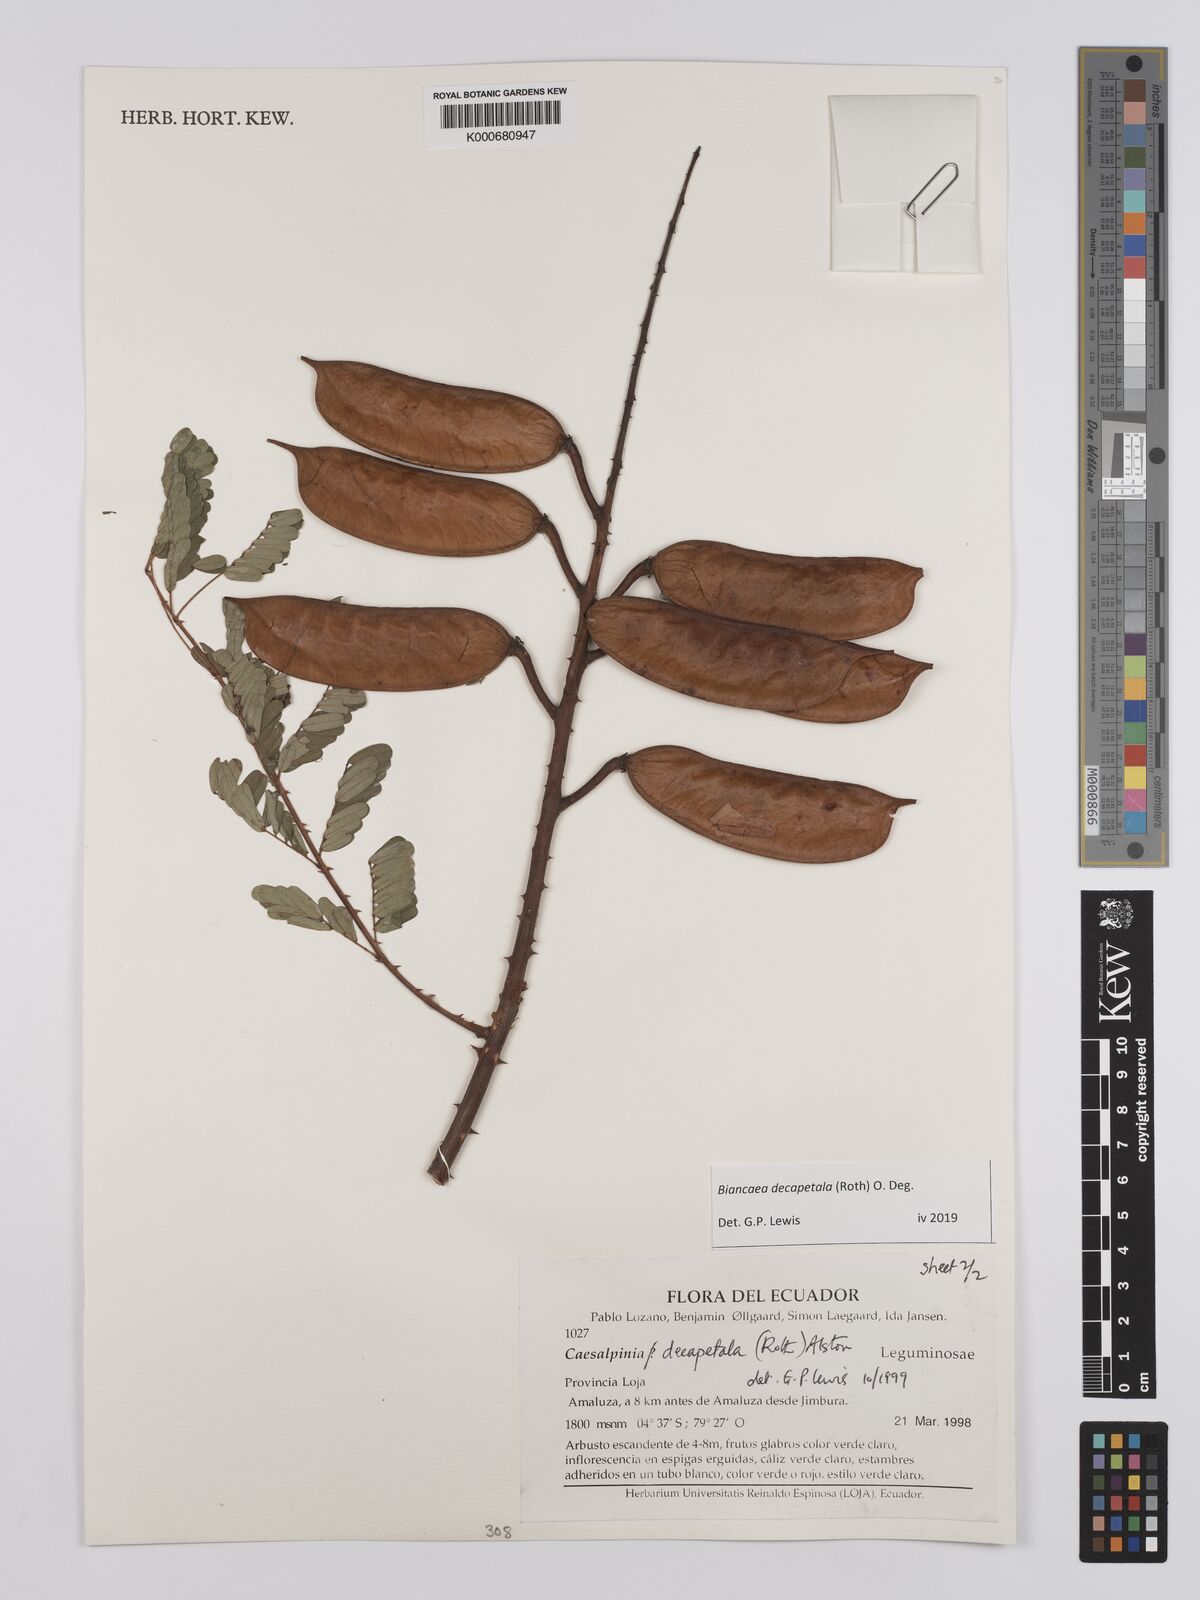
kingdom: Plantae
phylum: Tracheophyta
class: Magnoliopsida
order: Fabales
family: Fabaceae
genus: Biancaea
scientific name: Biancaea decapetala
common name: Cat's claw
